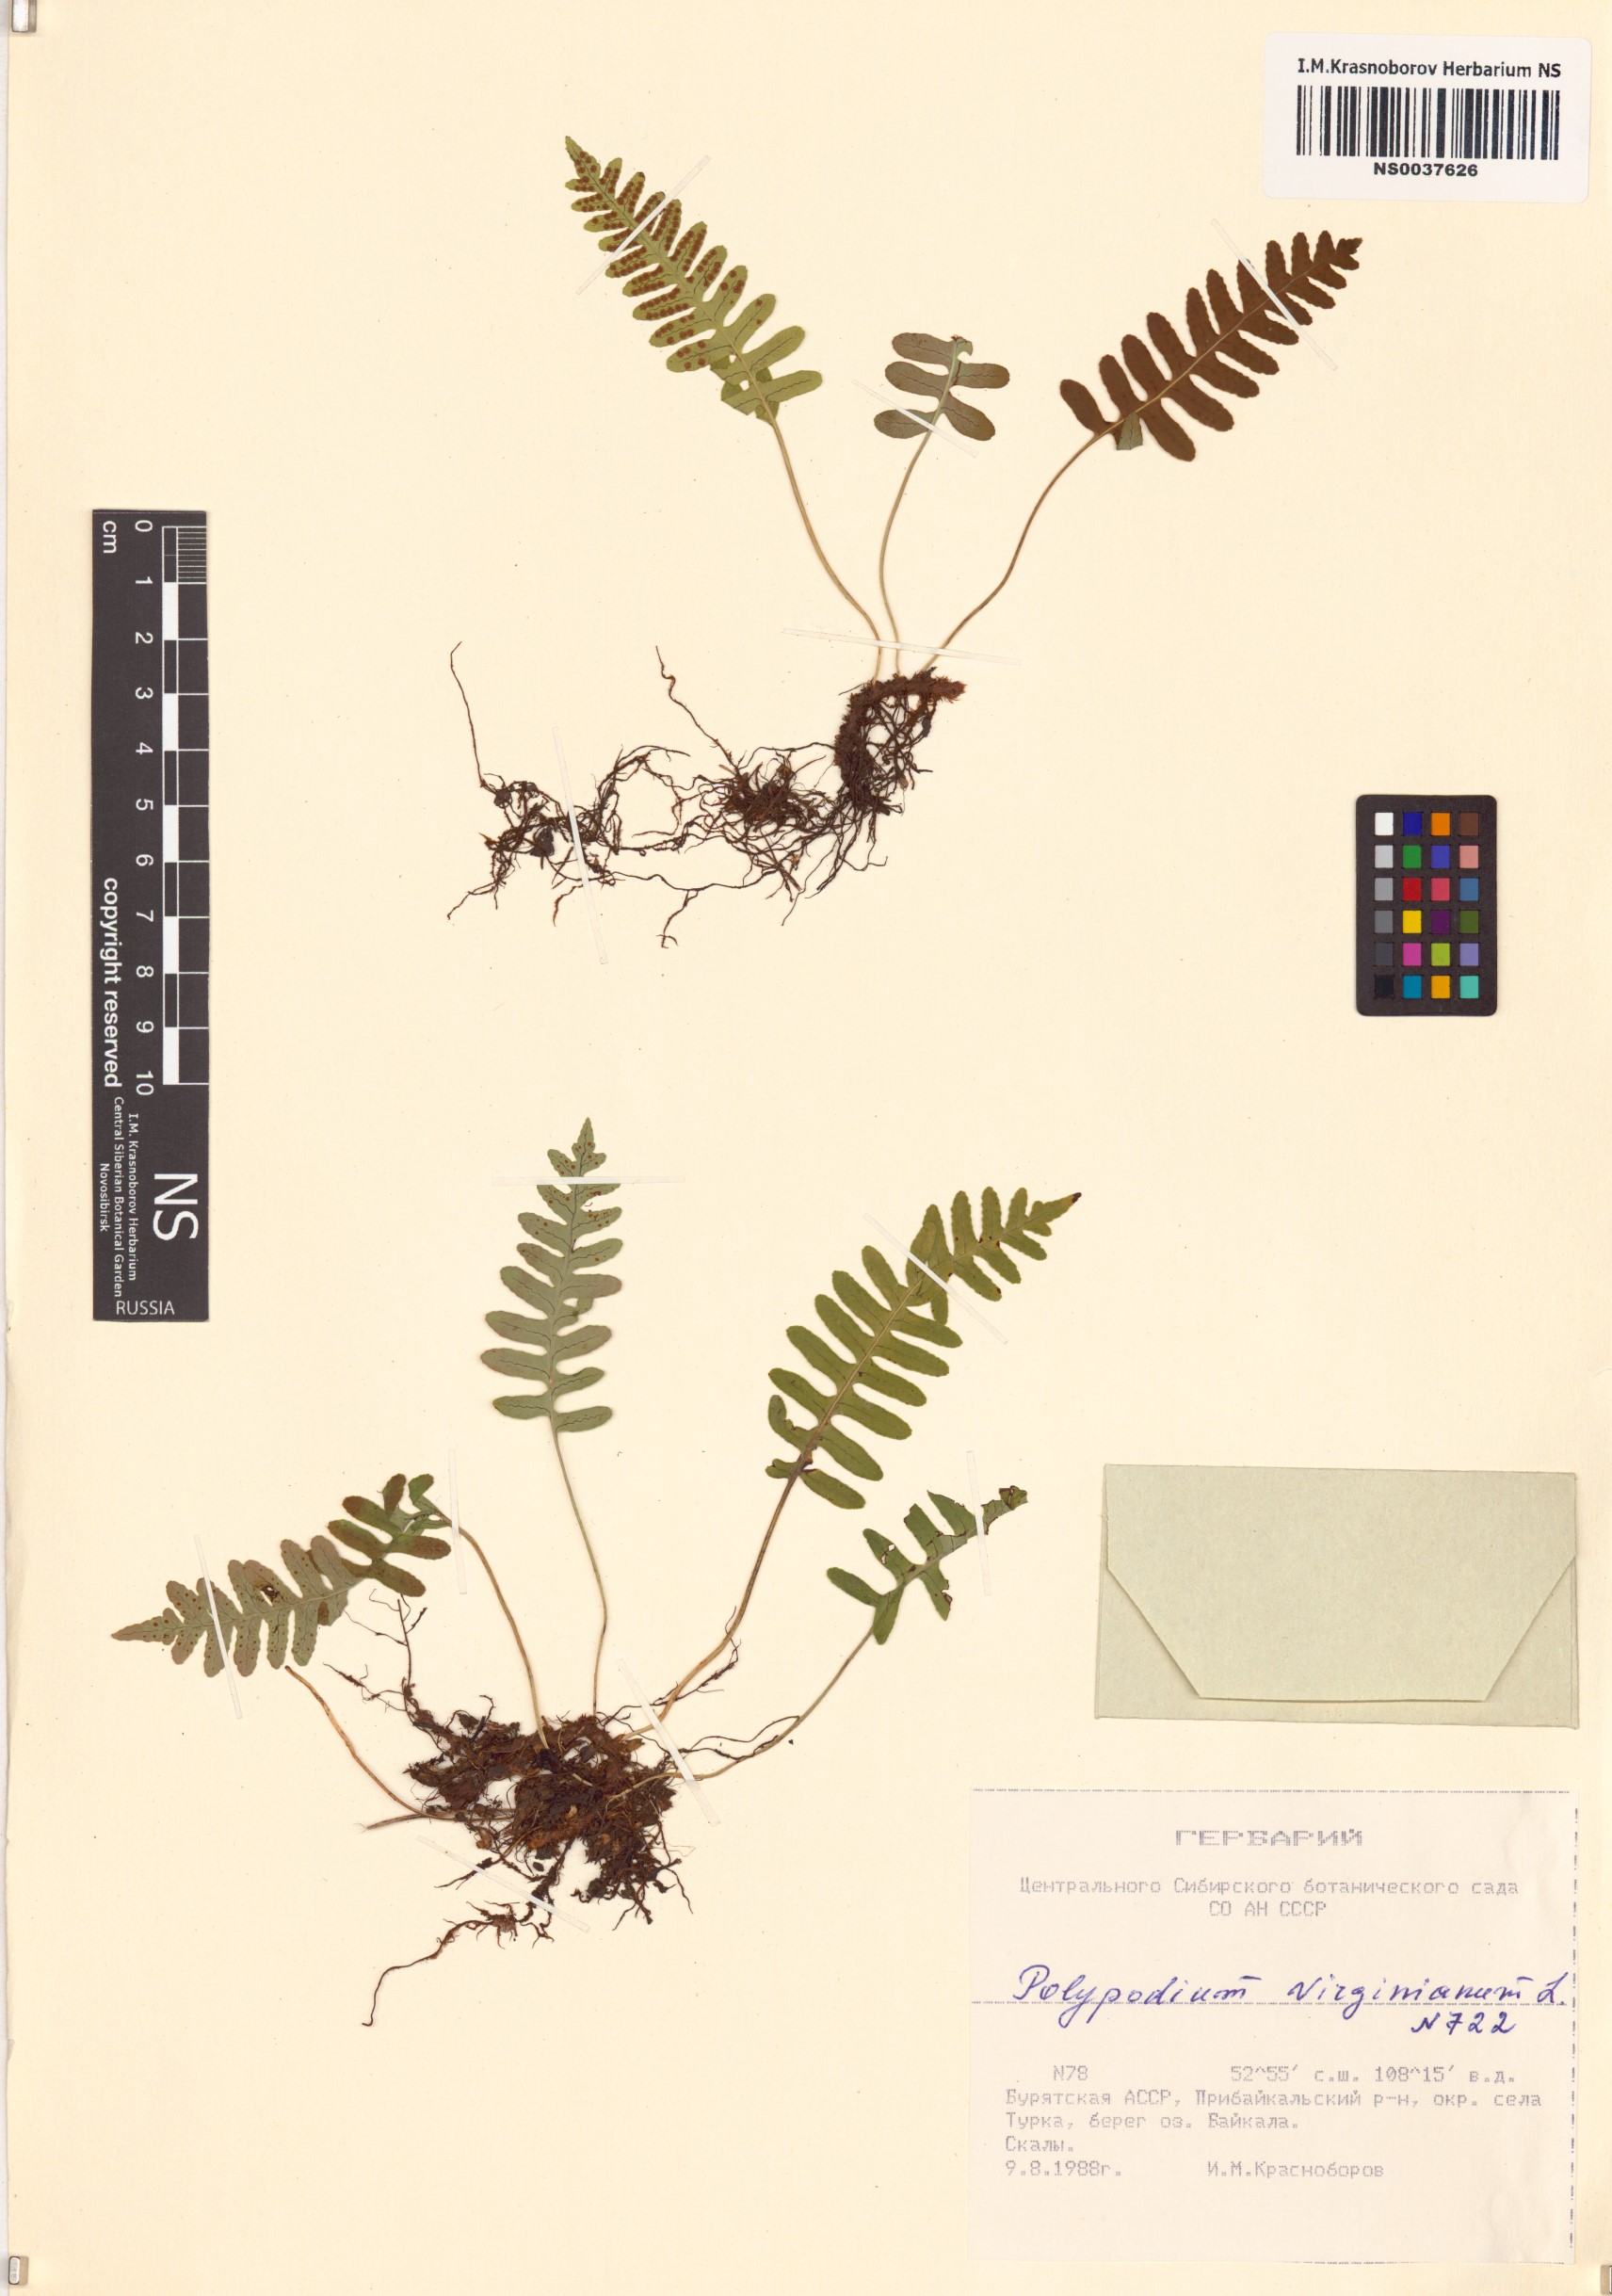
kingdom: Plantae
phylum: Tracheophyta
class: Polypodiopsida
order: Polypodiales
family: Polypodiaceae
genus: Polypodium
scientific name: Polypodium virginianum
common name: American wall fern
